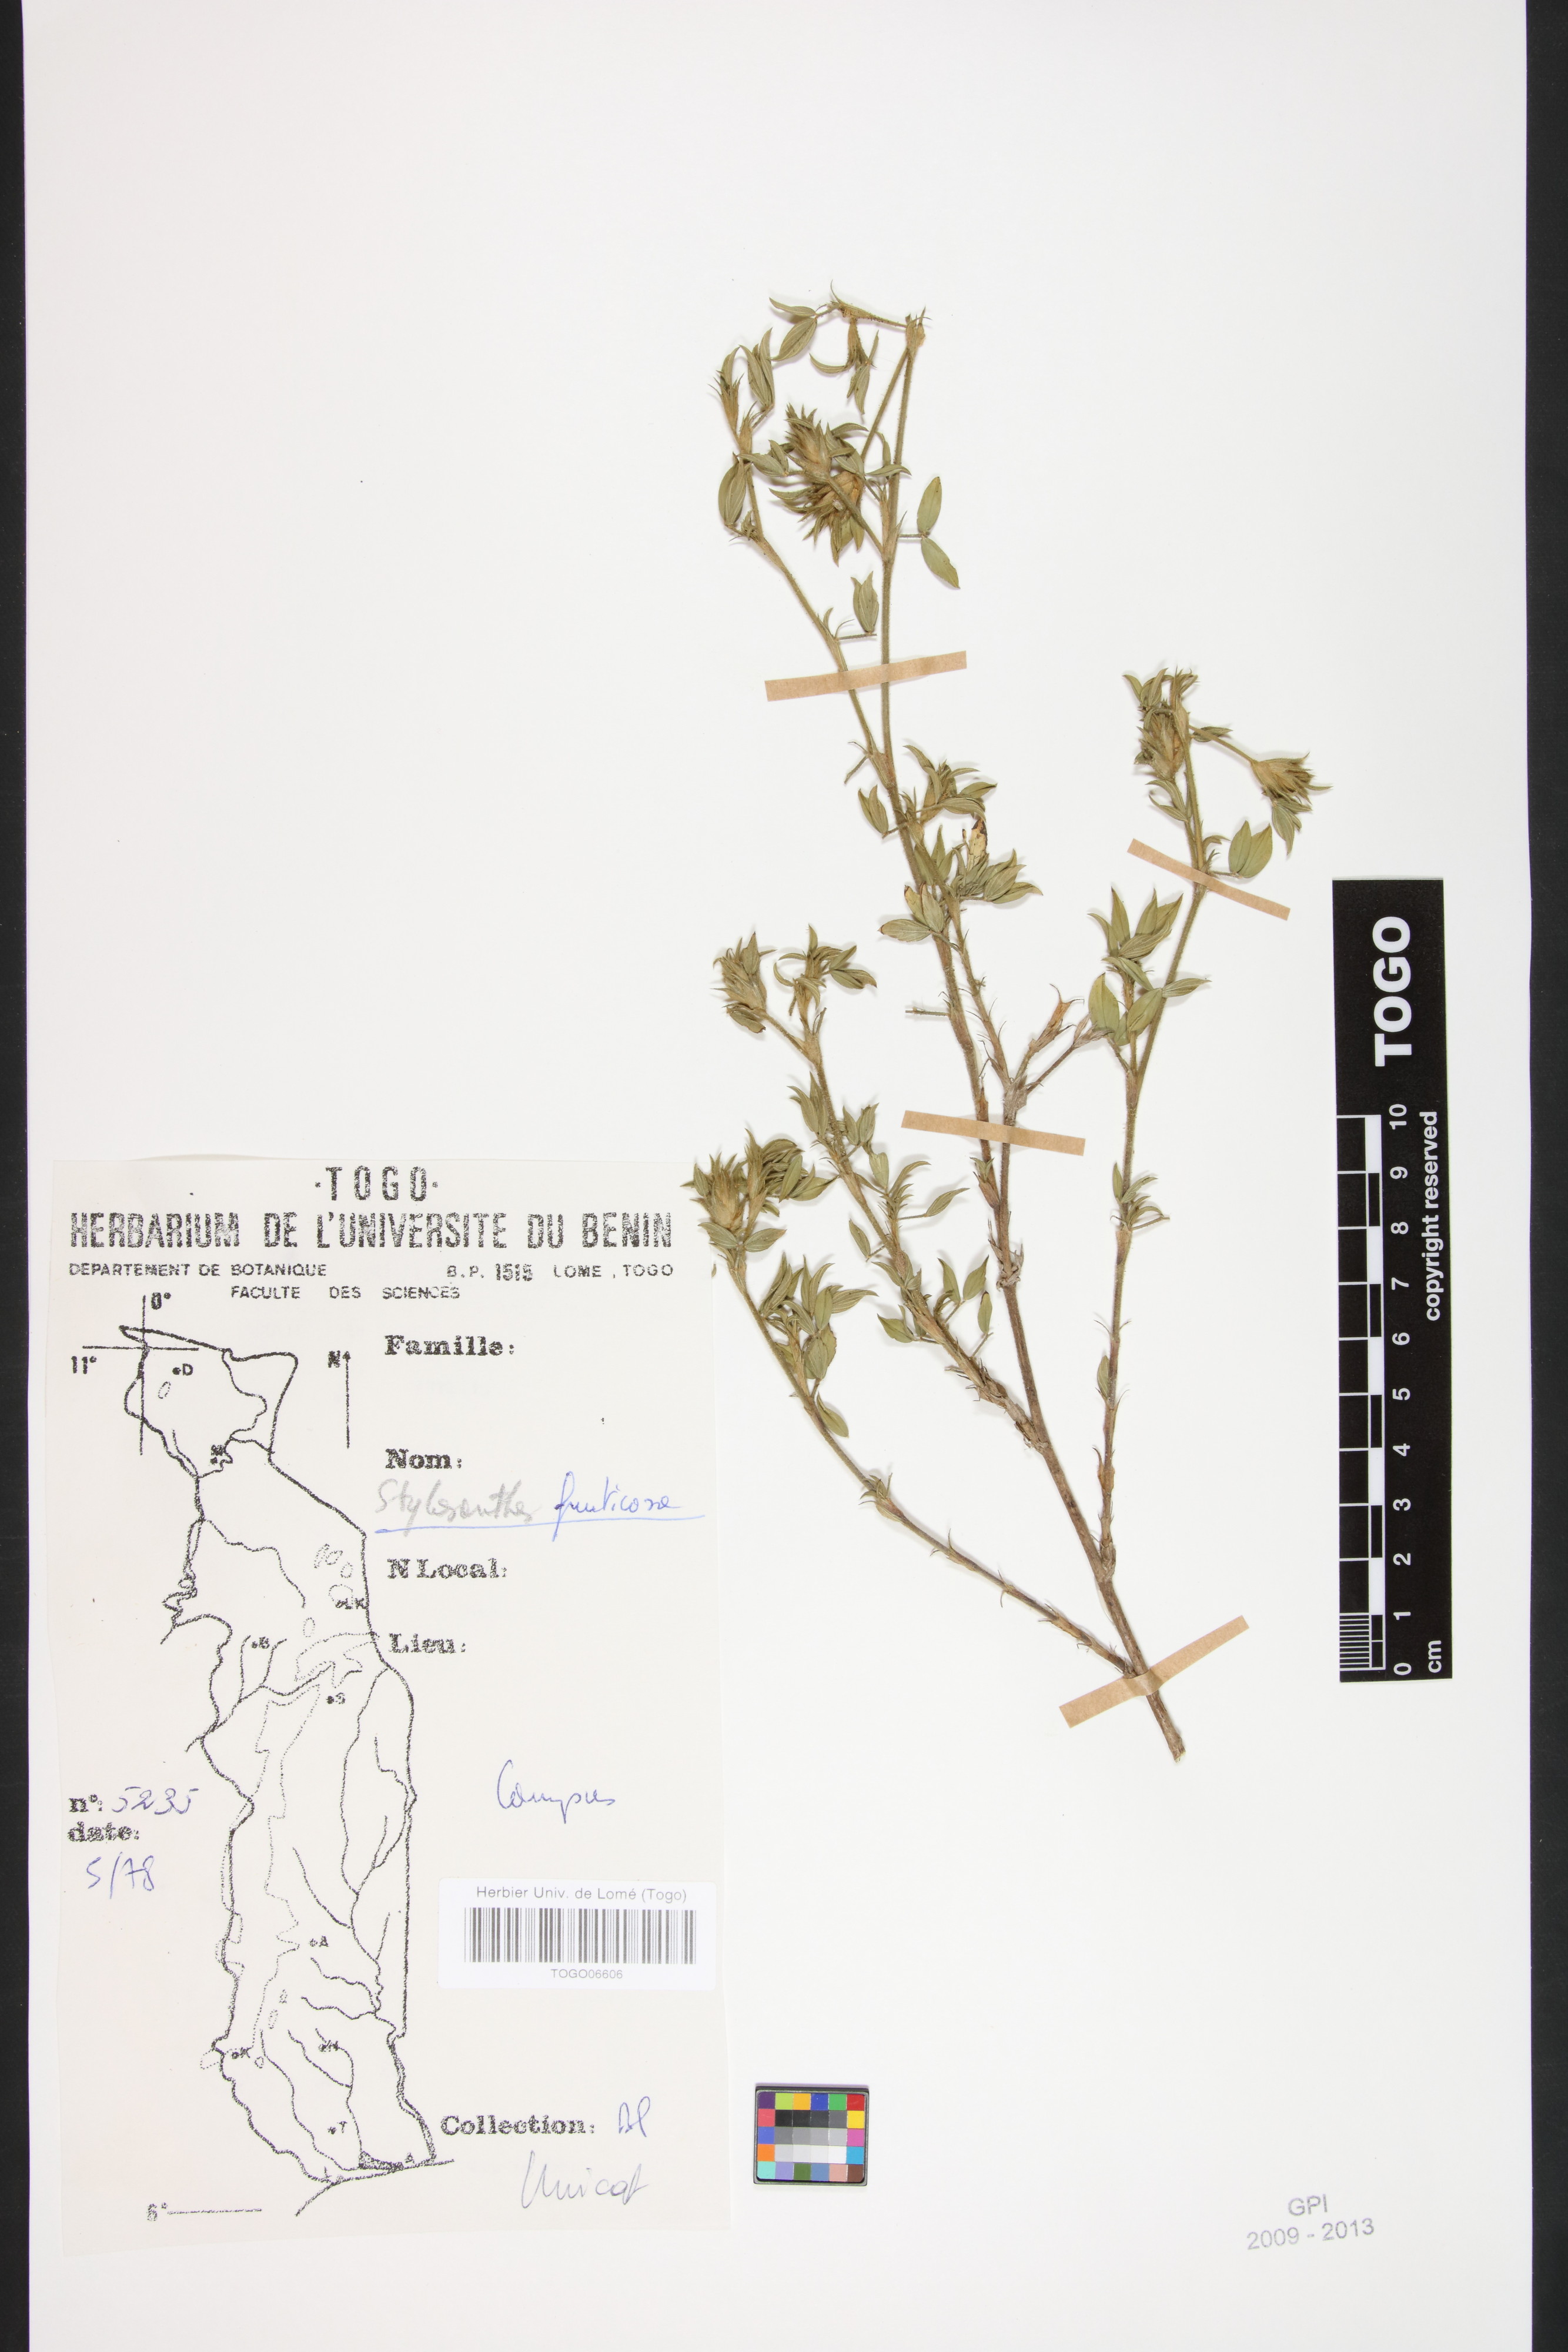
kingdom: Plantae
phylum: Tracheophyta
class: Magnoliopsida
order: Fabales
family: Fabaceae
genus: Stylosanthes
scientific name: Stylosanthes fruticosa
